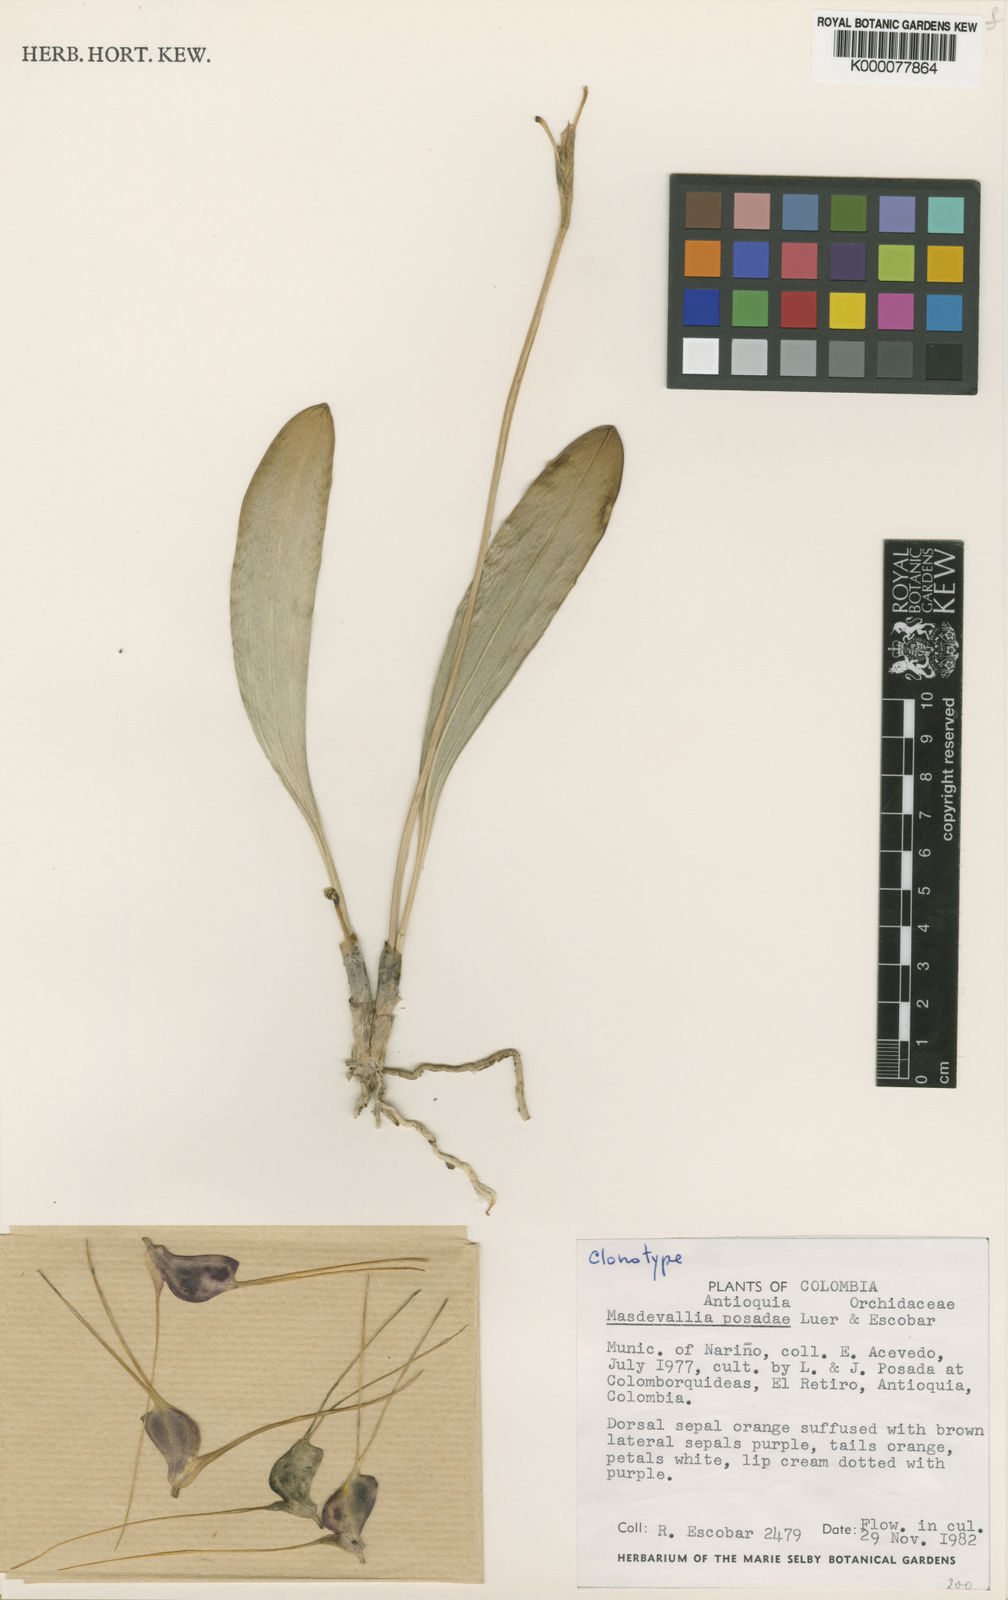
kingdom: Plantae
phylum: Tracheophyta
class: Liliopsida
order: Asparagales
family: Orchidaceae
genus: Masdevallia
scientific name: Masdevallia posadae
